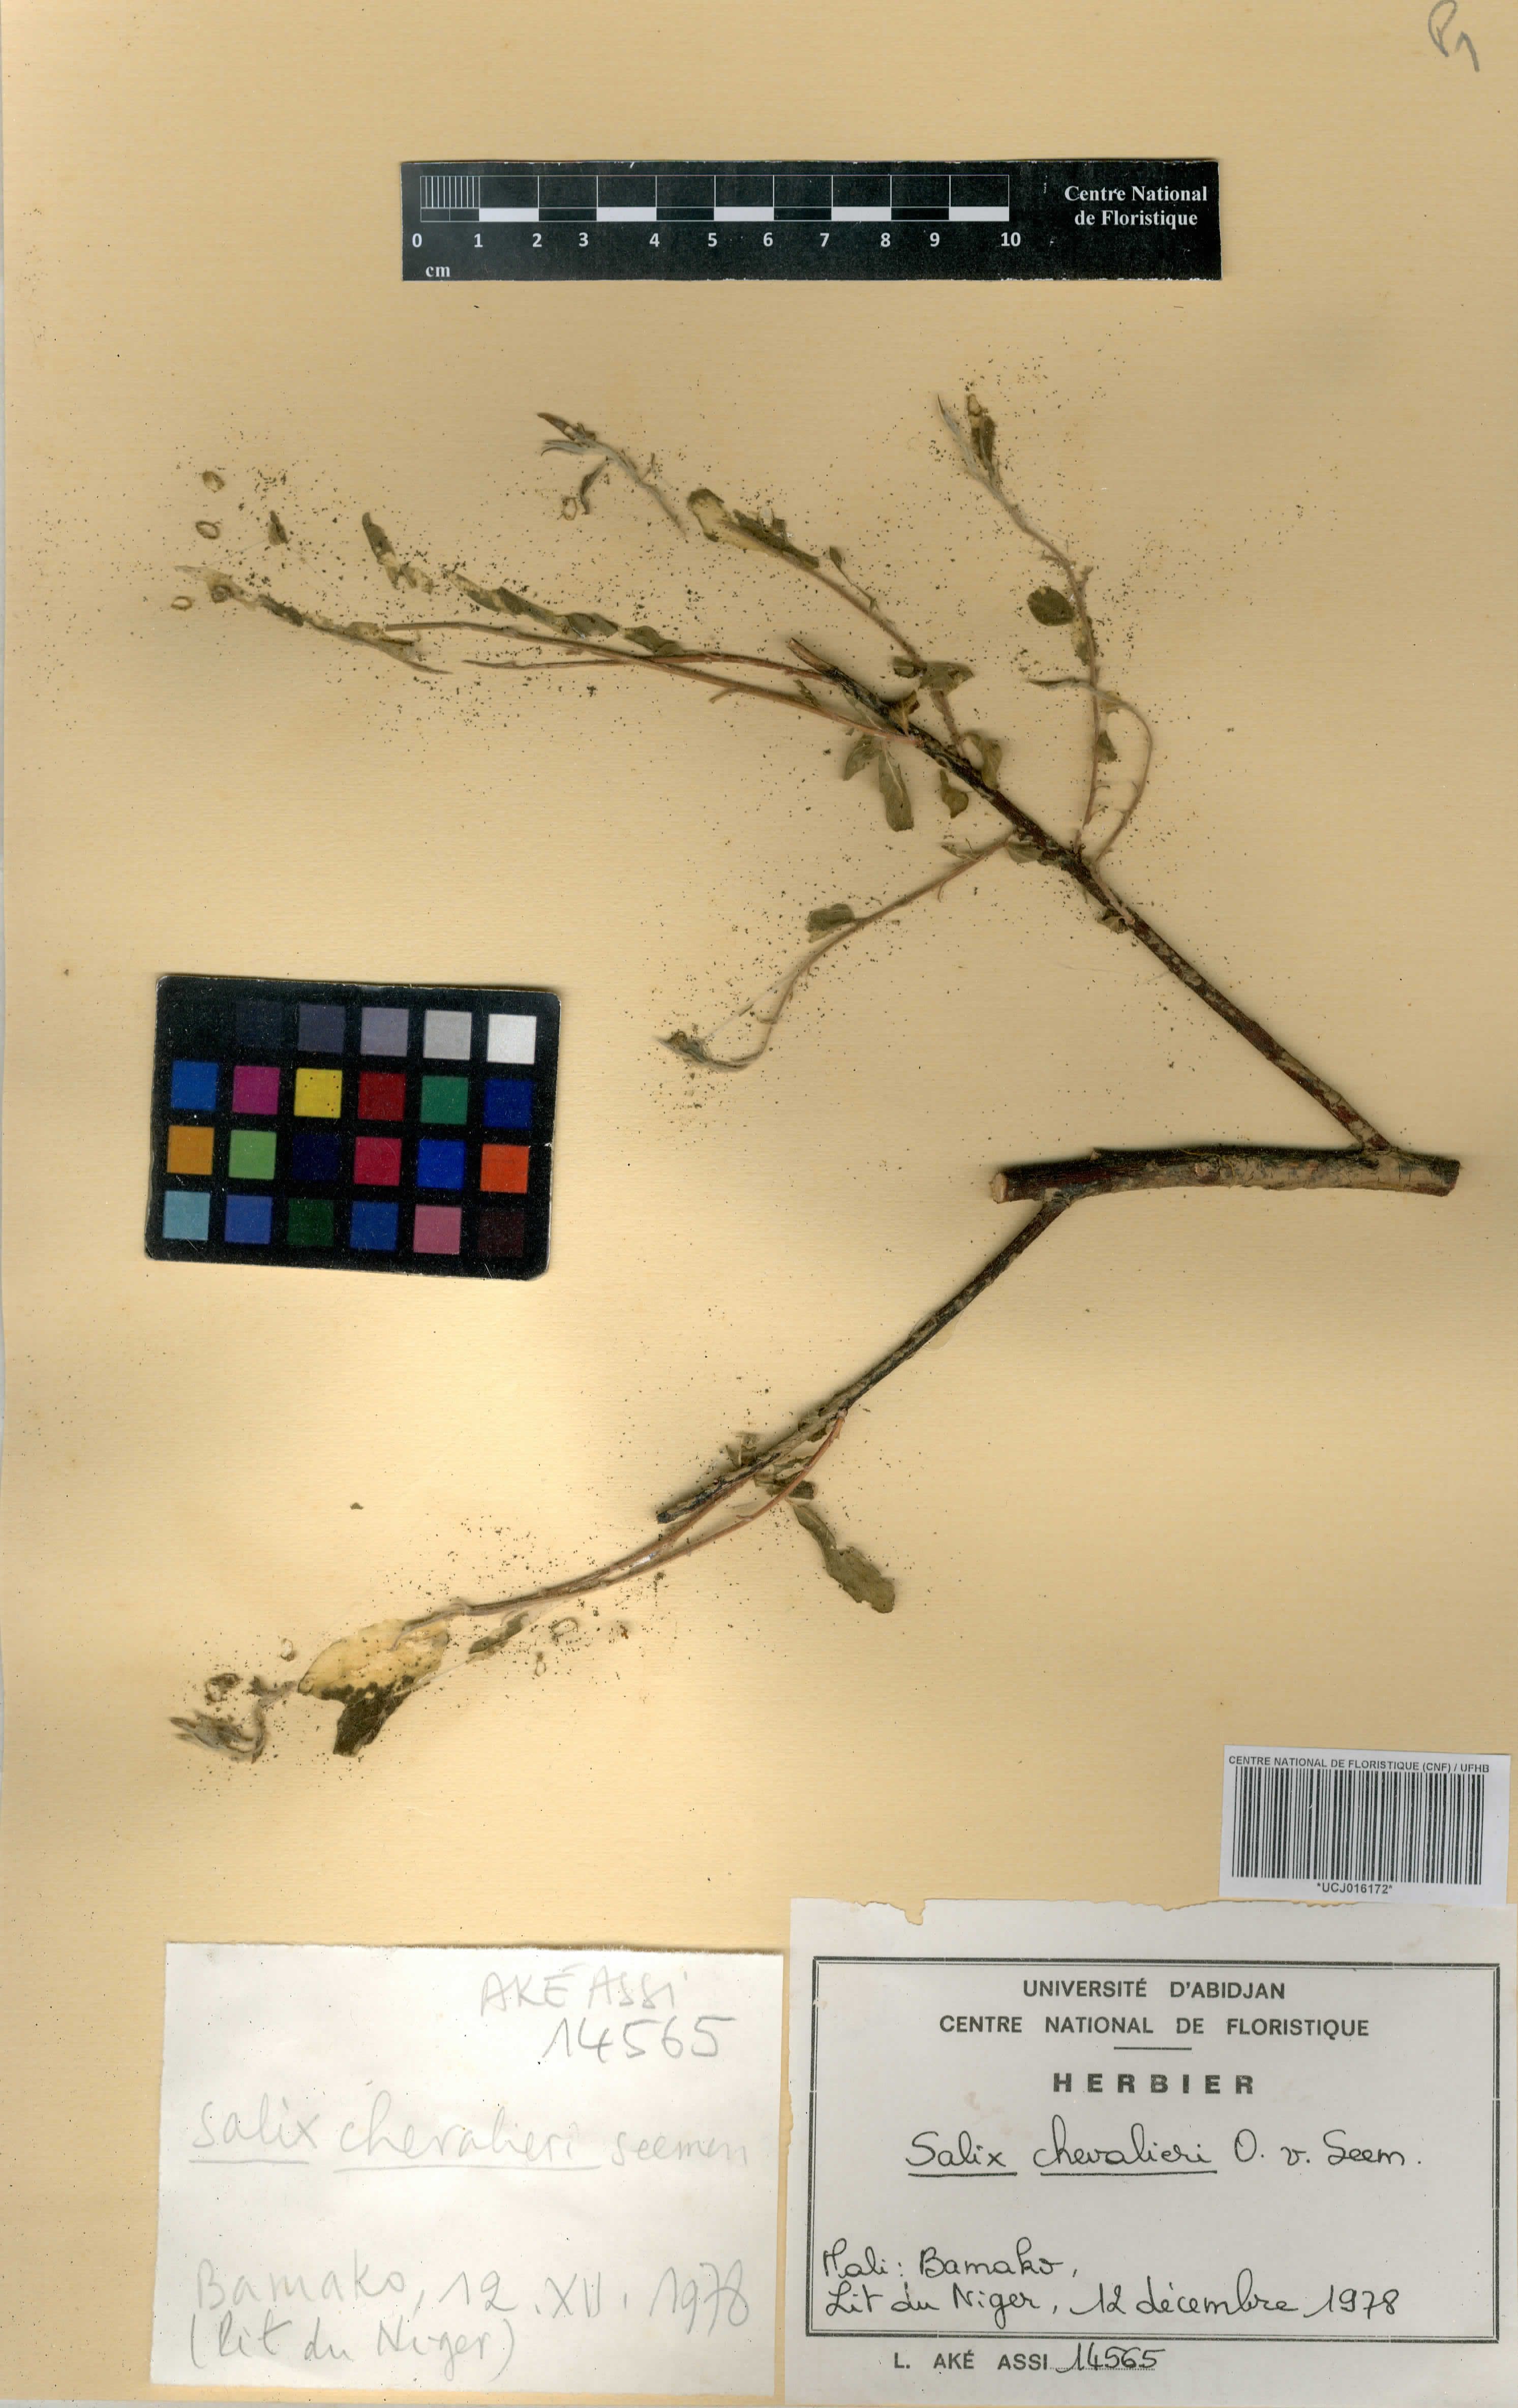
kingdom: Plantae
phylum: Tracheophyta
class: Magnoliopsida
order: Malpighiales
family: Salicaceae
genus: Salix
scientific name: Salix chevalieri
